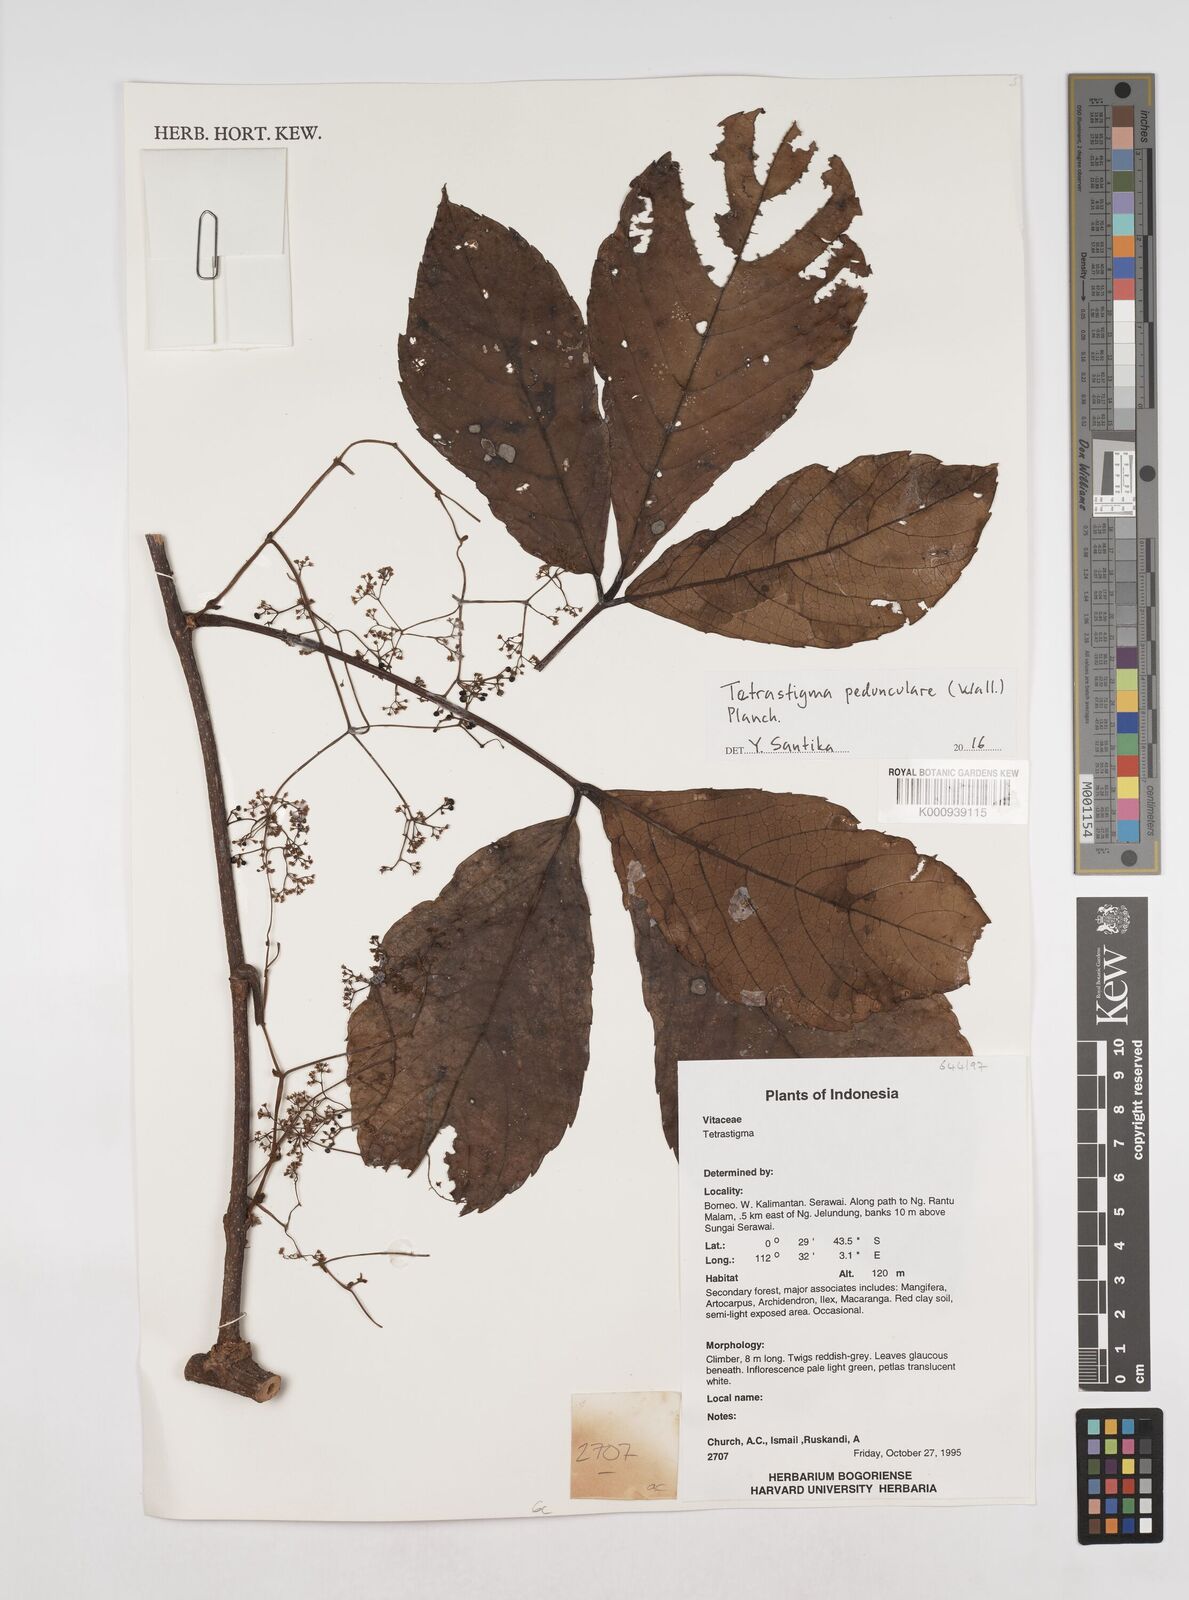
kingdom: Plantae
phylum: Tracheophyta
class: Magnoliopsida
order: Vitales
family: Vitaceae
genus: Tetrastigma
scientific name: Tetrastigma pedunculare
